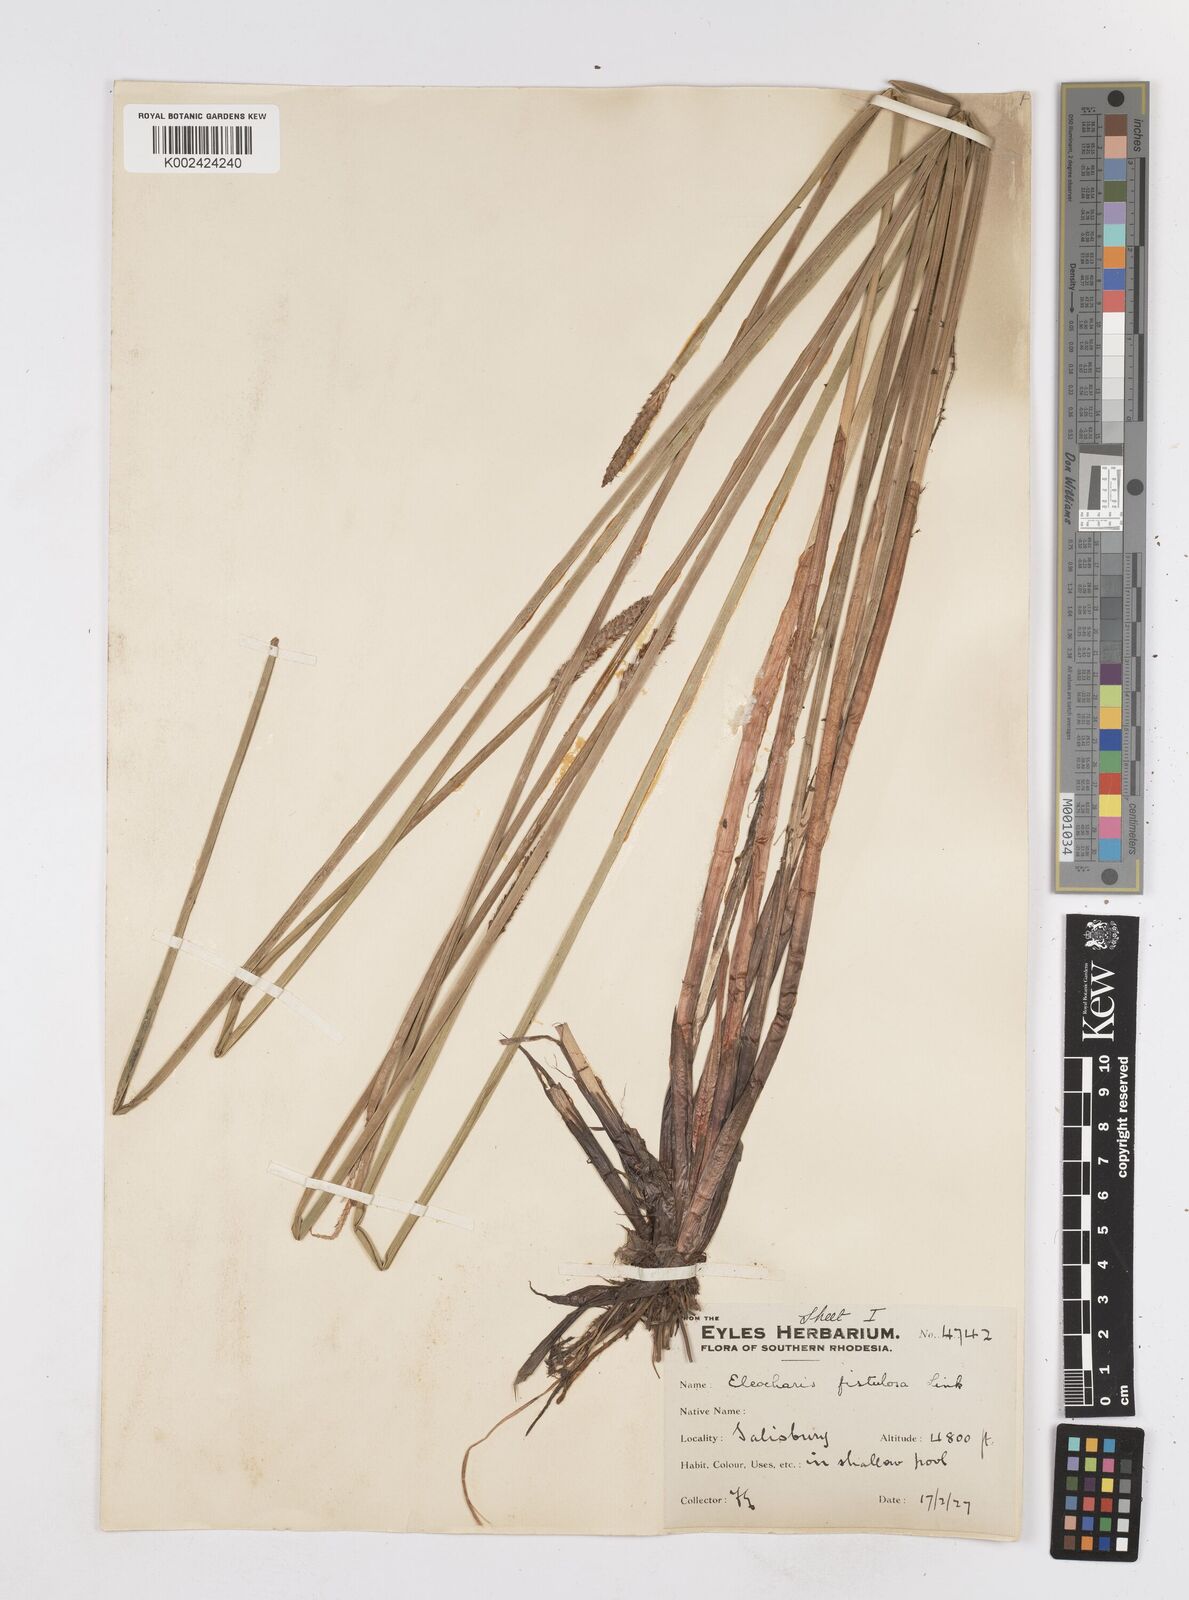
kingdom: Plantae
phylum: Tracheophyta
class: Liliopsida
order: Poales
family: Cyperaceae
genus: Eleocharis
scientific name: Eleocharis acutangula
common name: Acute spikerush
